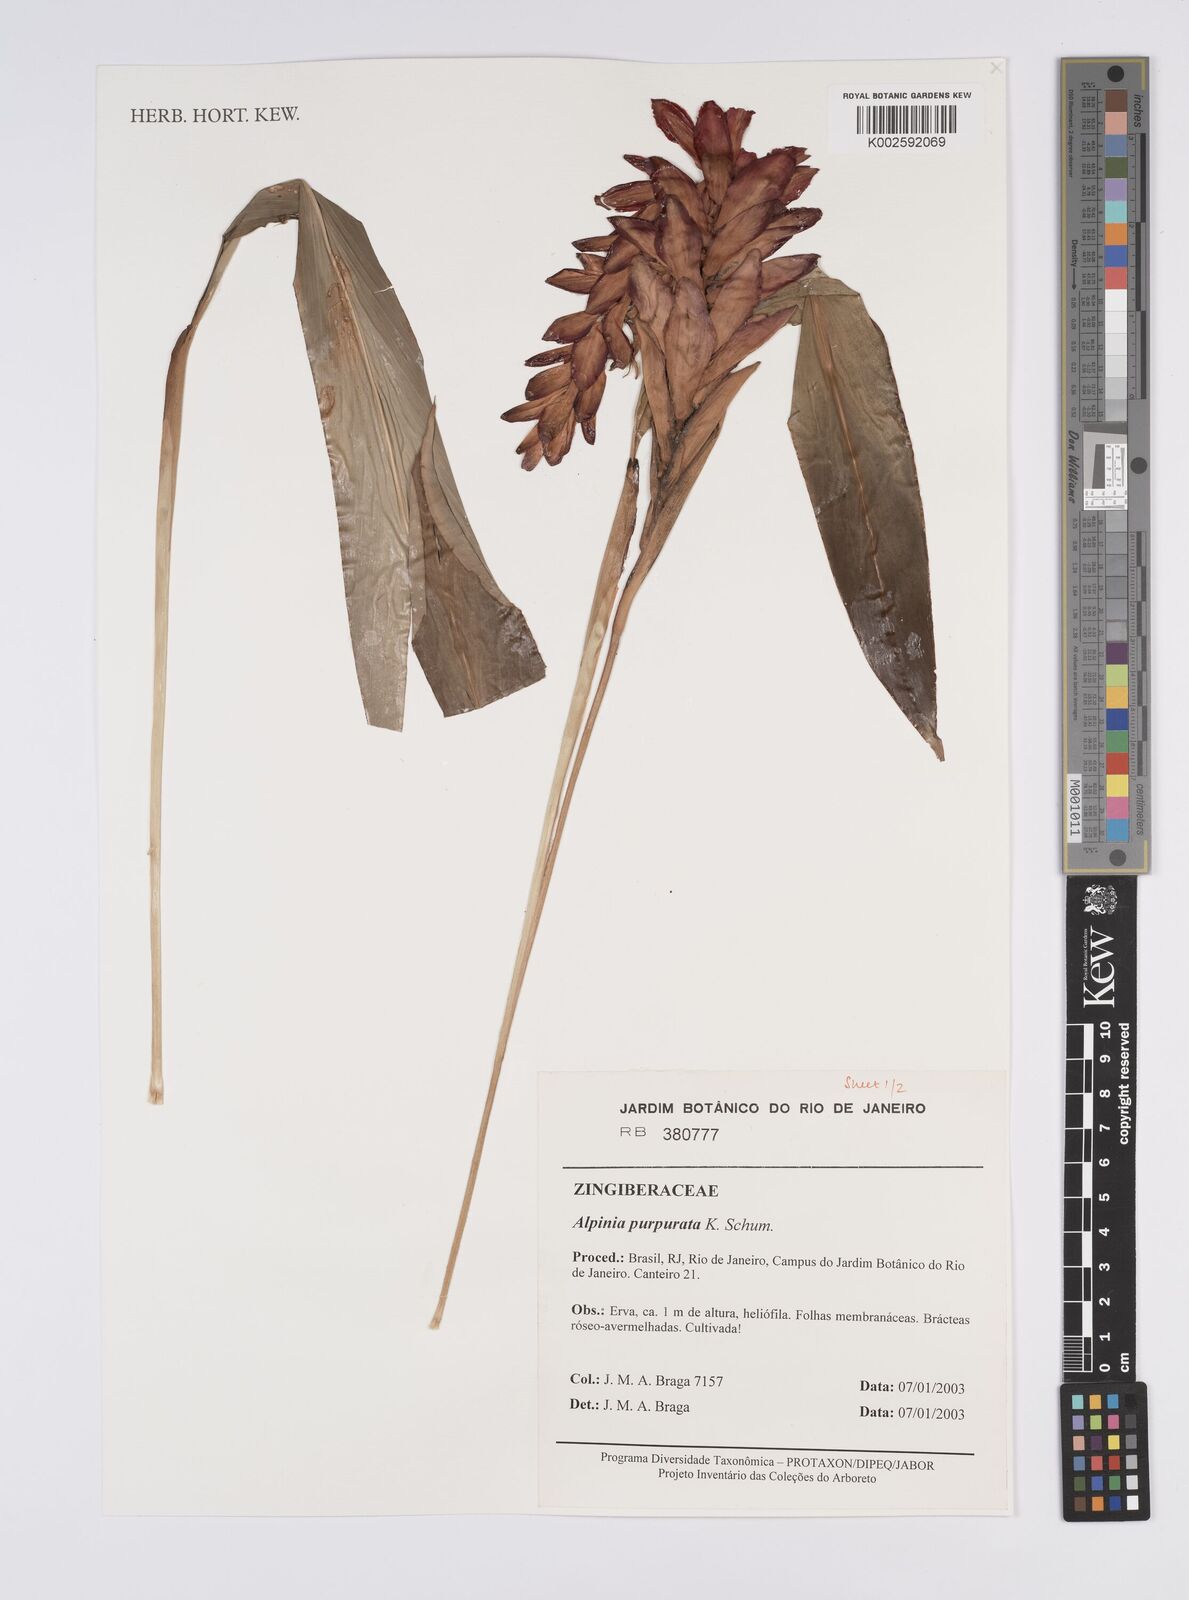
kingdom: Plantae
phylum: Tracheophyta
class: Liliopsida
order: Zingiberales
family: Zingiberaceae
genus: Alpinia
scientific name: Alpinia purpurata
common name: Red ginger
